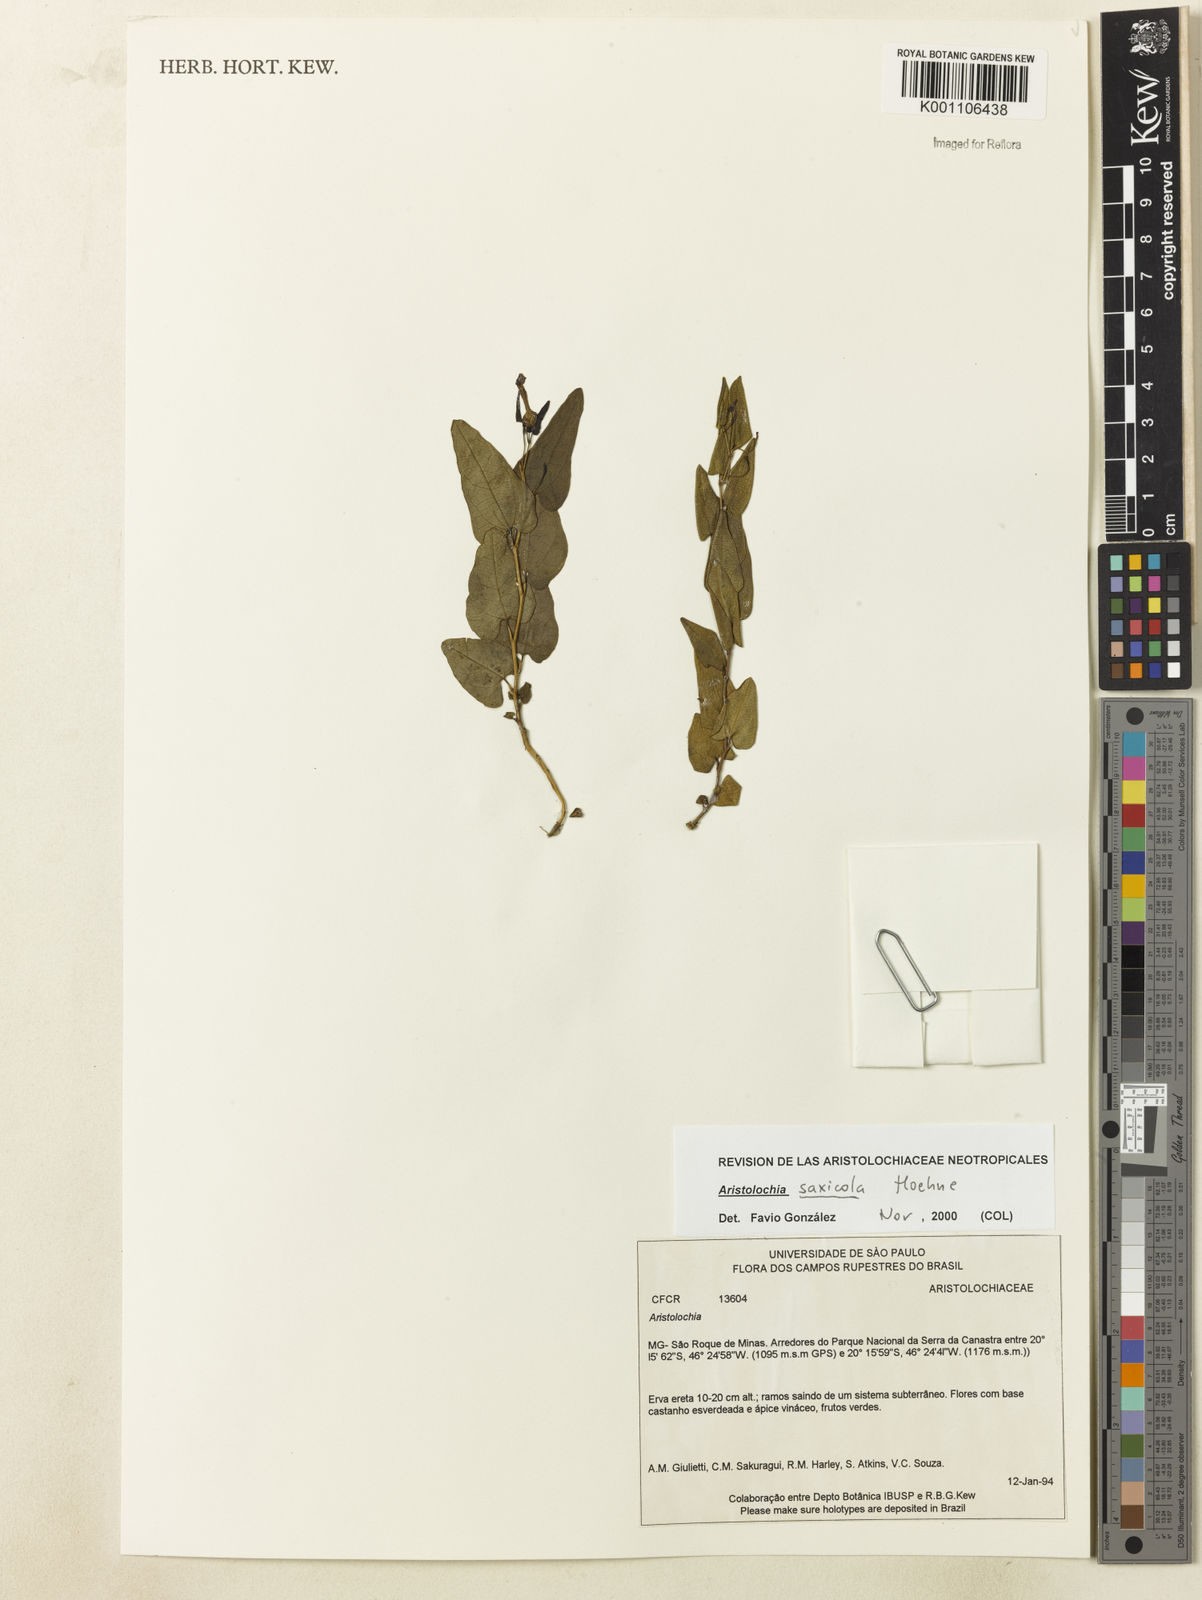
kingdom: Plantae
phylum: Tracheophyta
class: Magnoliopsida
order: Piperales
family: Aristolochiaceae
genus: Aristolochia
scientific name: Aristolochia smilacina
